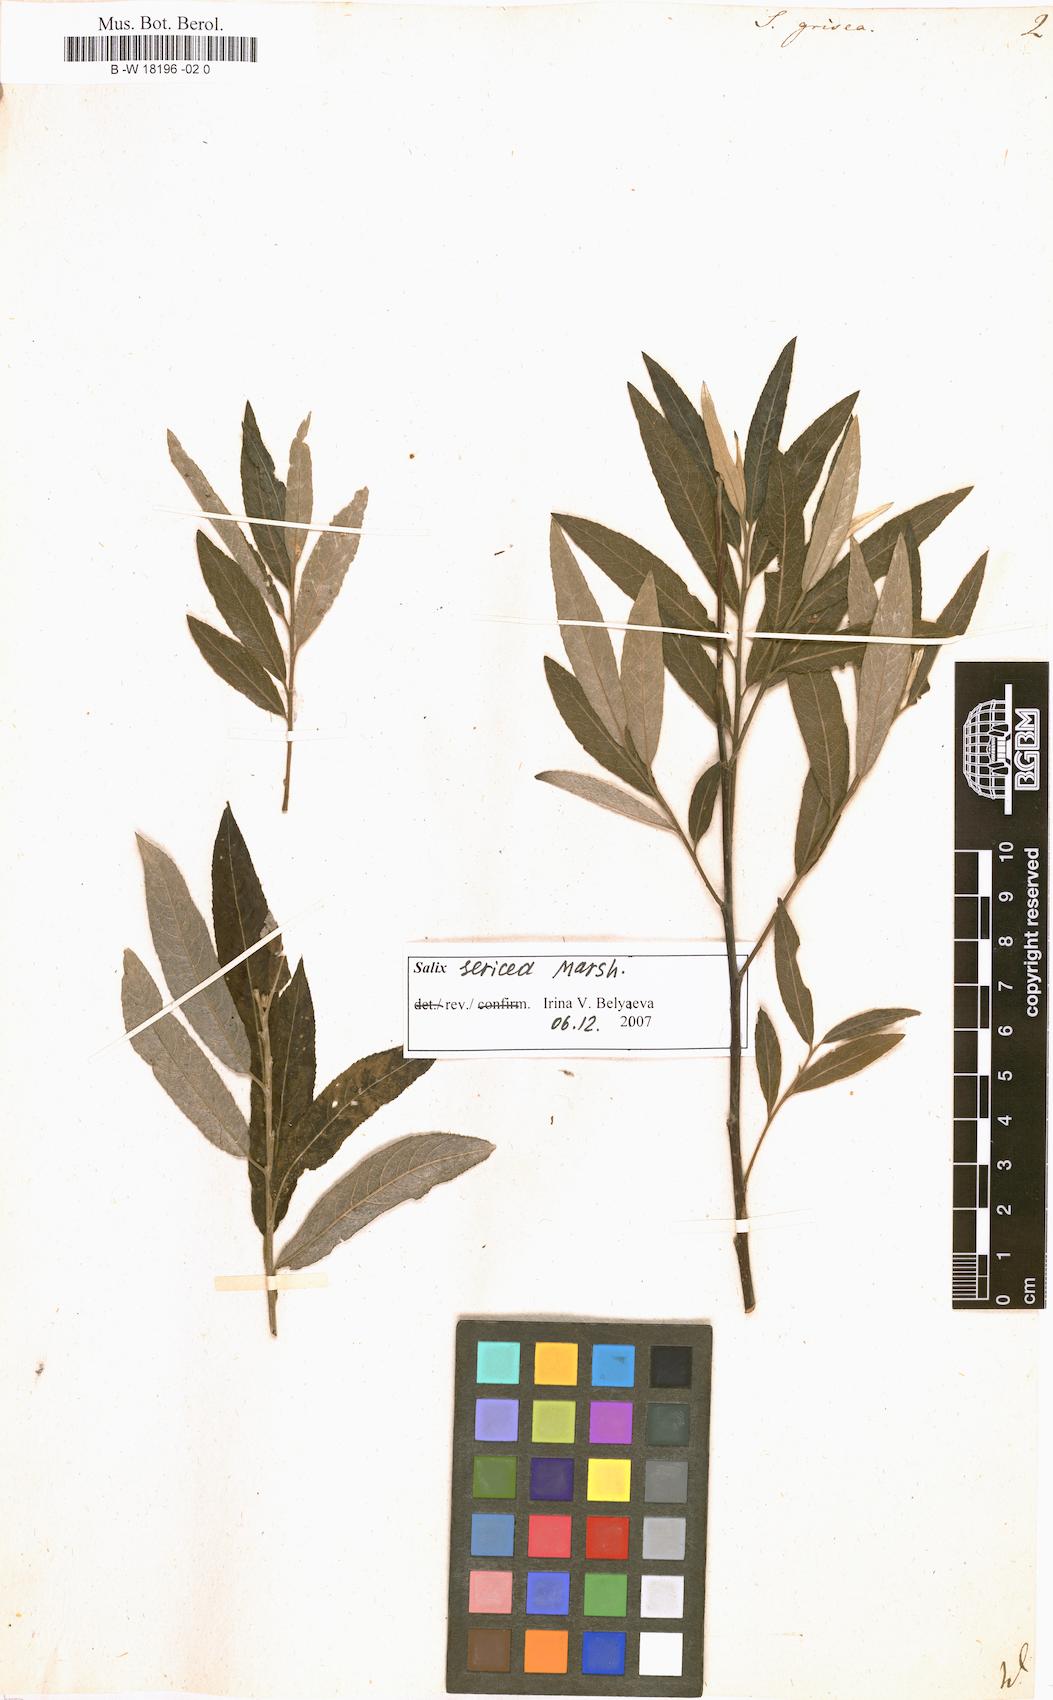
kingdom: Plantae
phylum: Tracheophyta
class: Magnoliopsida
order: Malpighiales
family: Salicaceae
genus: Salix
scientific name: Salix
